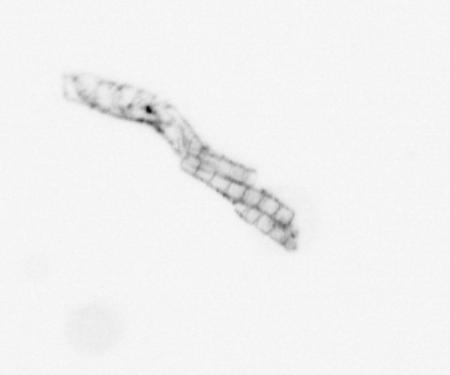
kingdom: Chromista
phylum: Ochrophyta
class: Bacillariophyceae
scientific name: Bacillariophyceae
